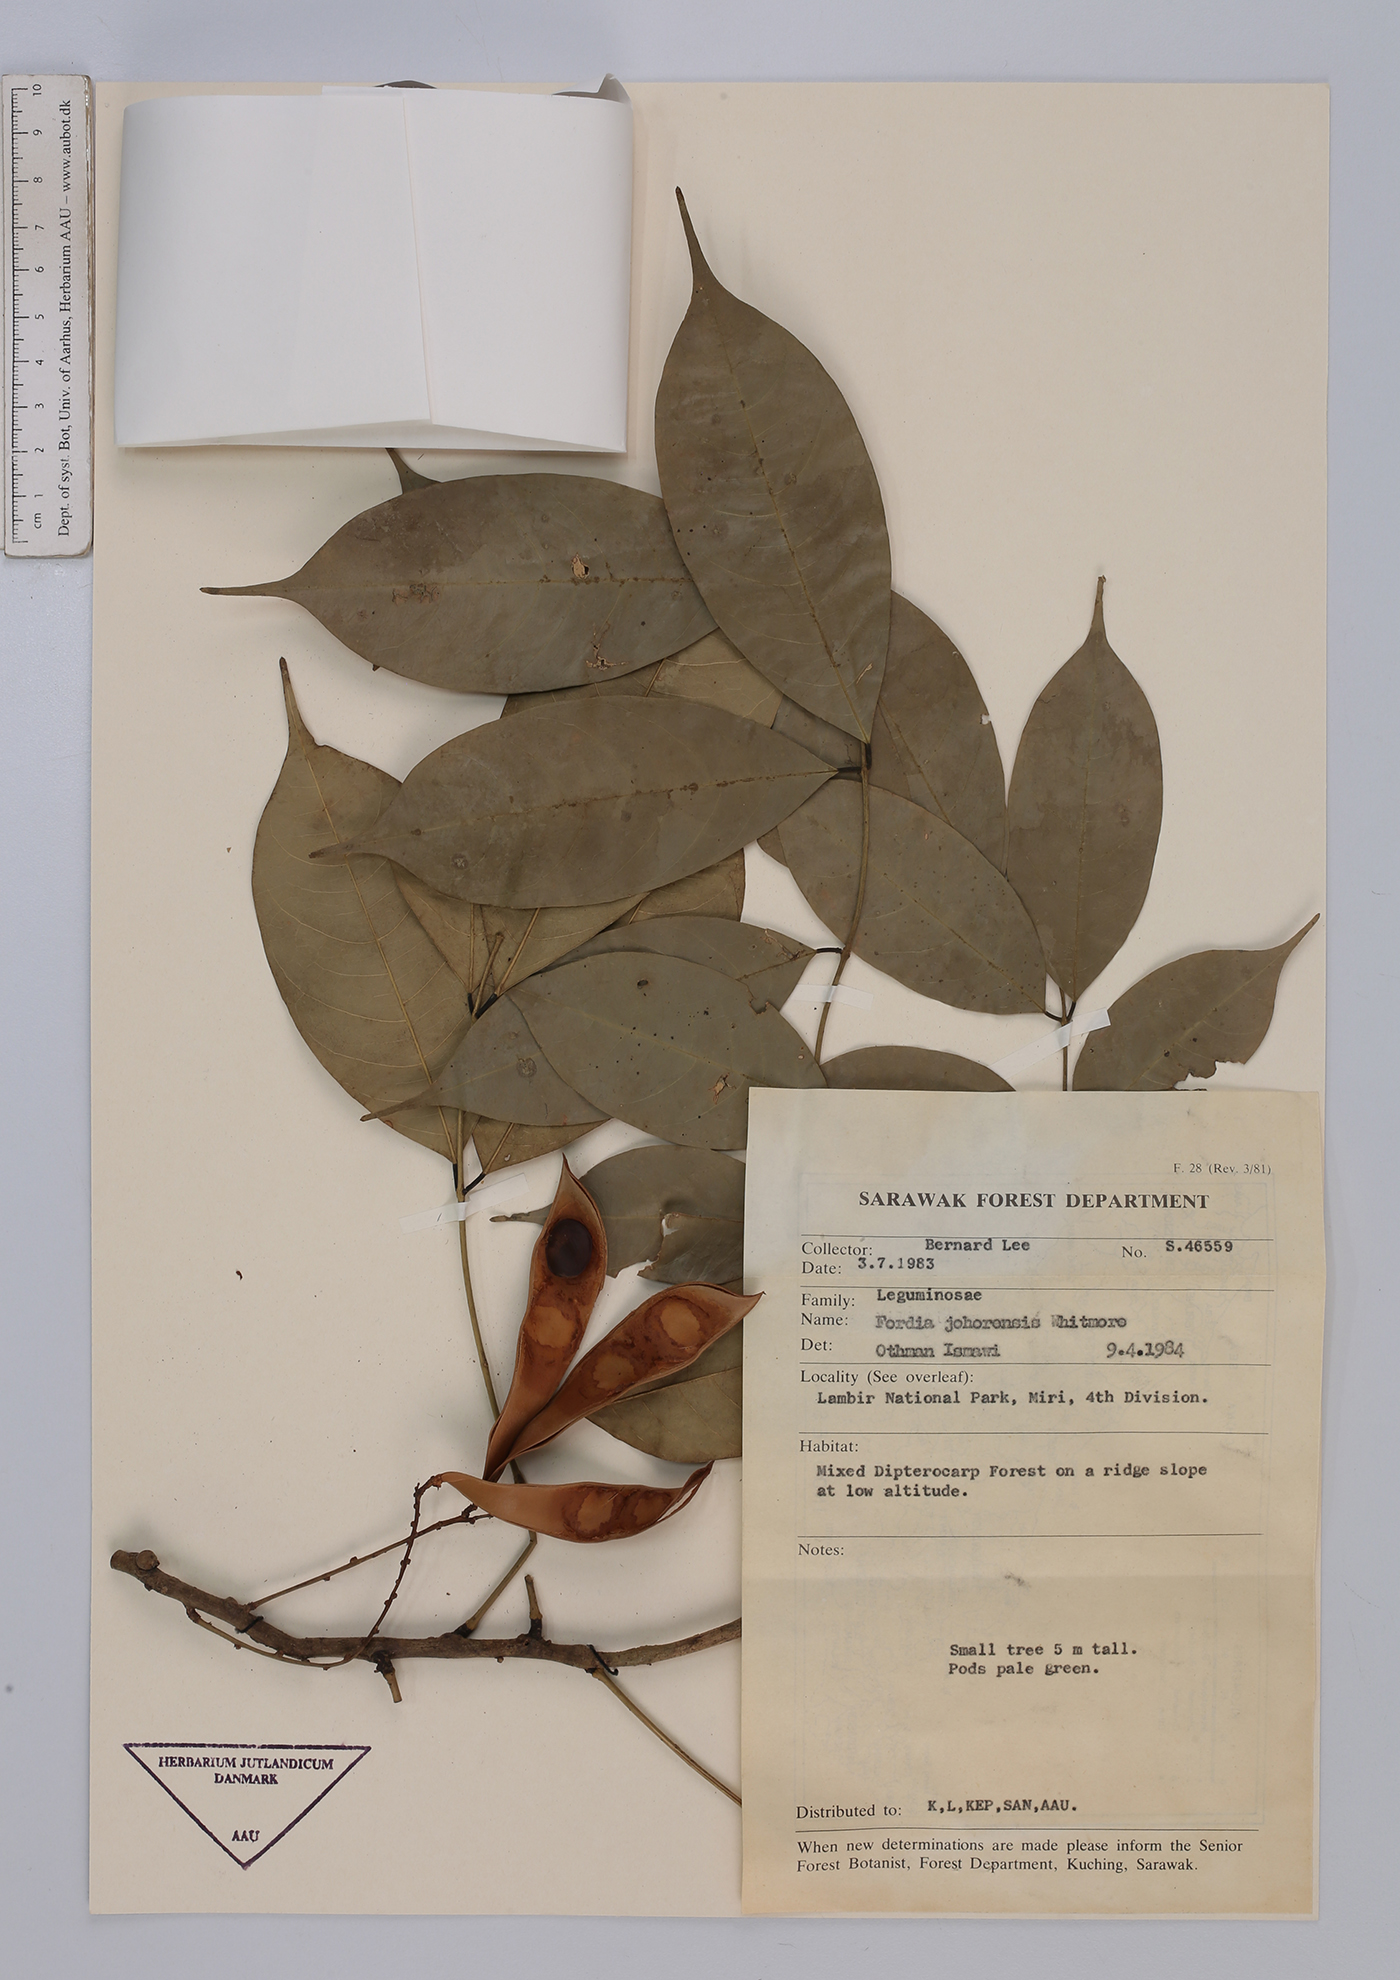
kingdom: Plantae
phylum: Tracheophyta
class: Magnoliopsida
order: Fabales
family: Fabaceae
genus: Fordia
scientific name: Fordia johorensis
